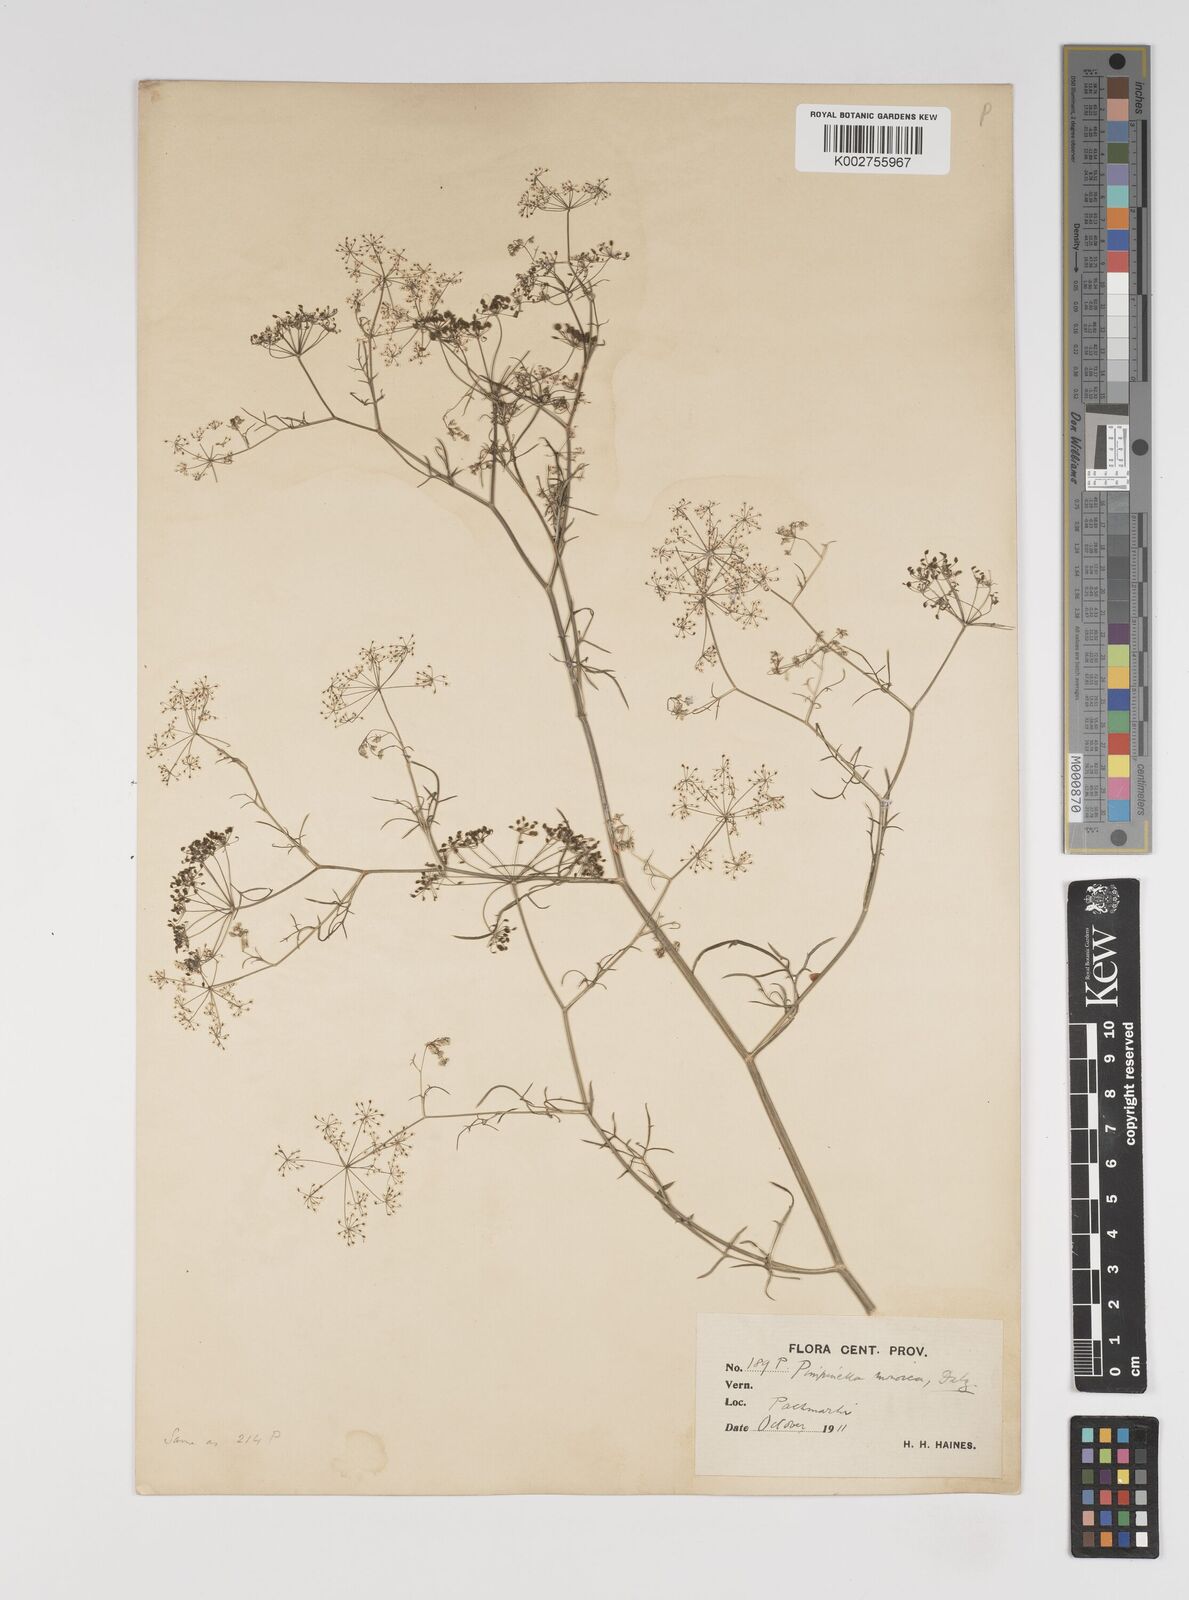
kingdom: Plantae
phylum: Tracheophyta
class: Magnoliopsida
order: Apiales
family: Apiaceae
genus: Pimpinella
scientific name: Pimpinella wallichiana
